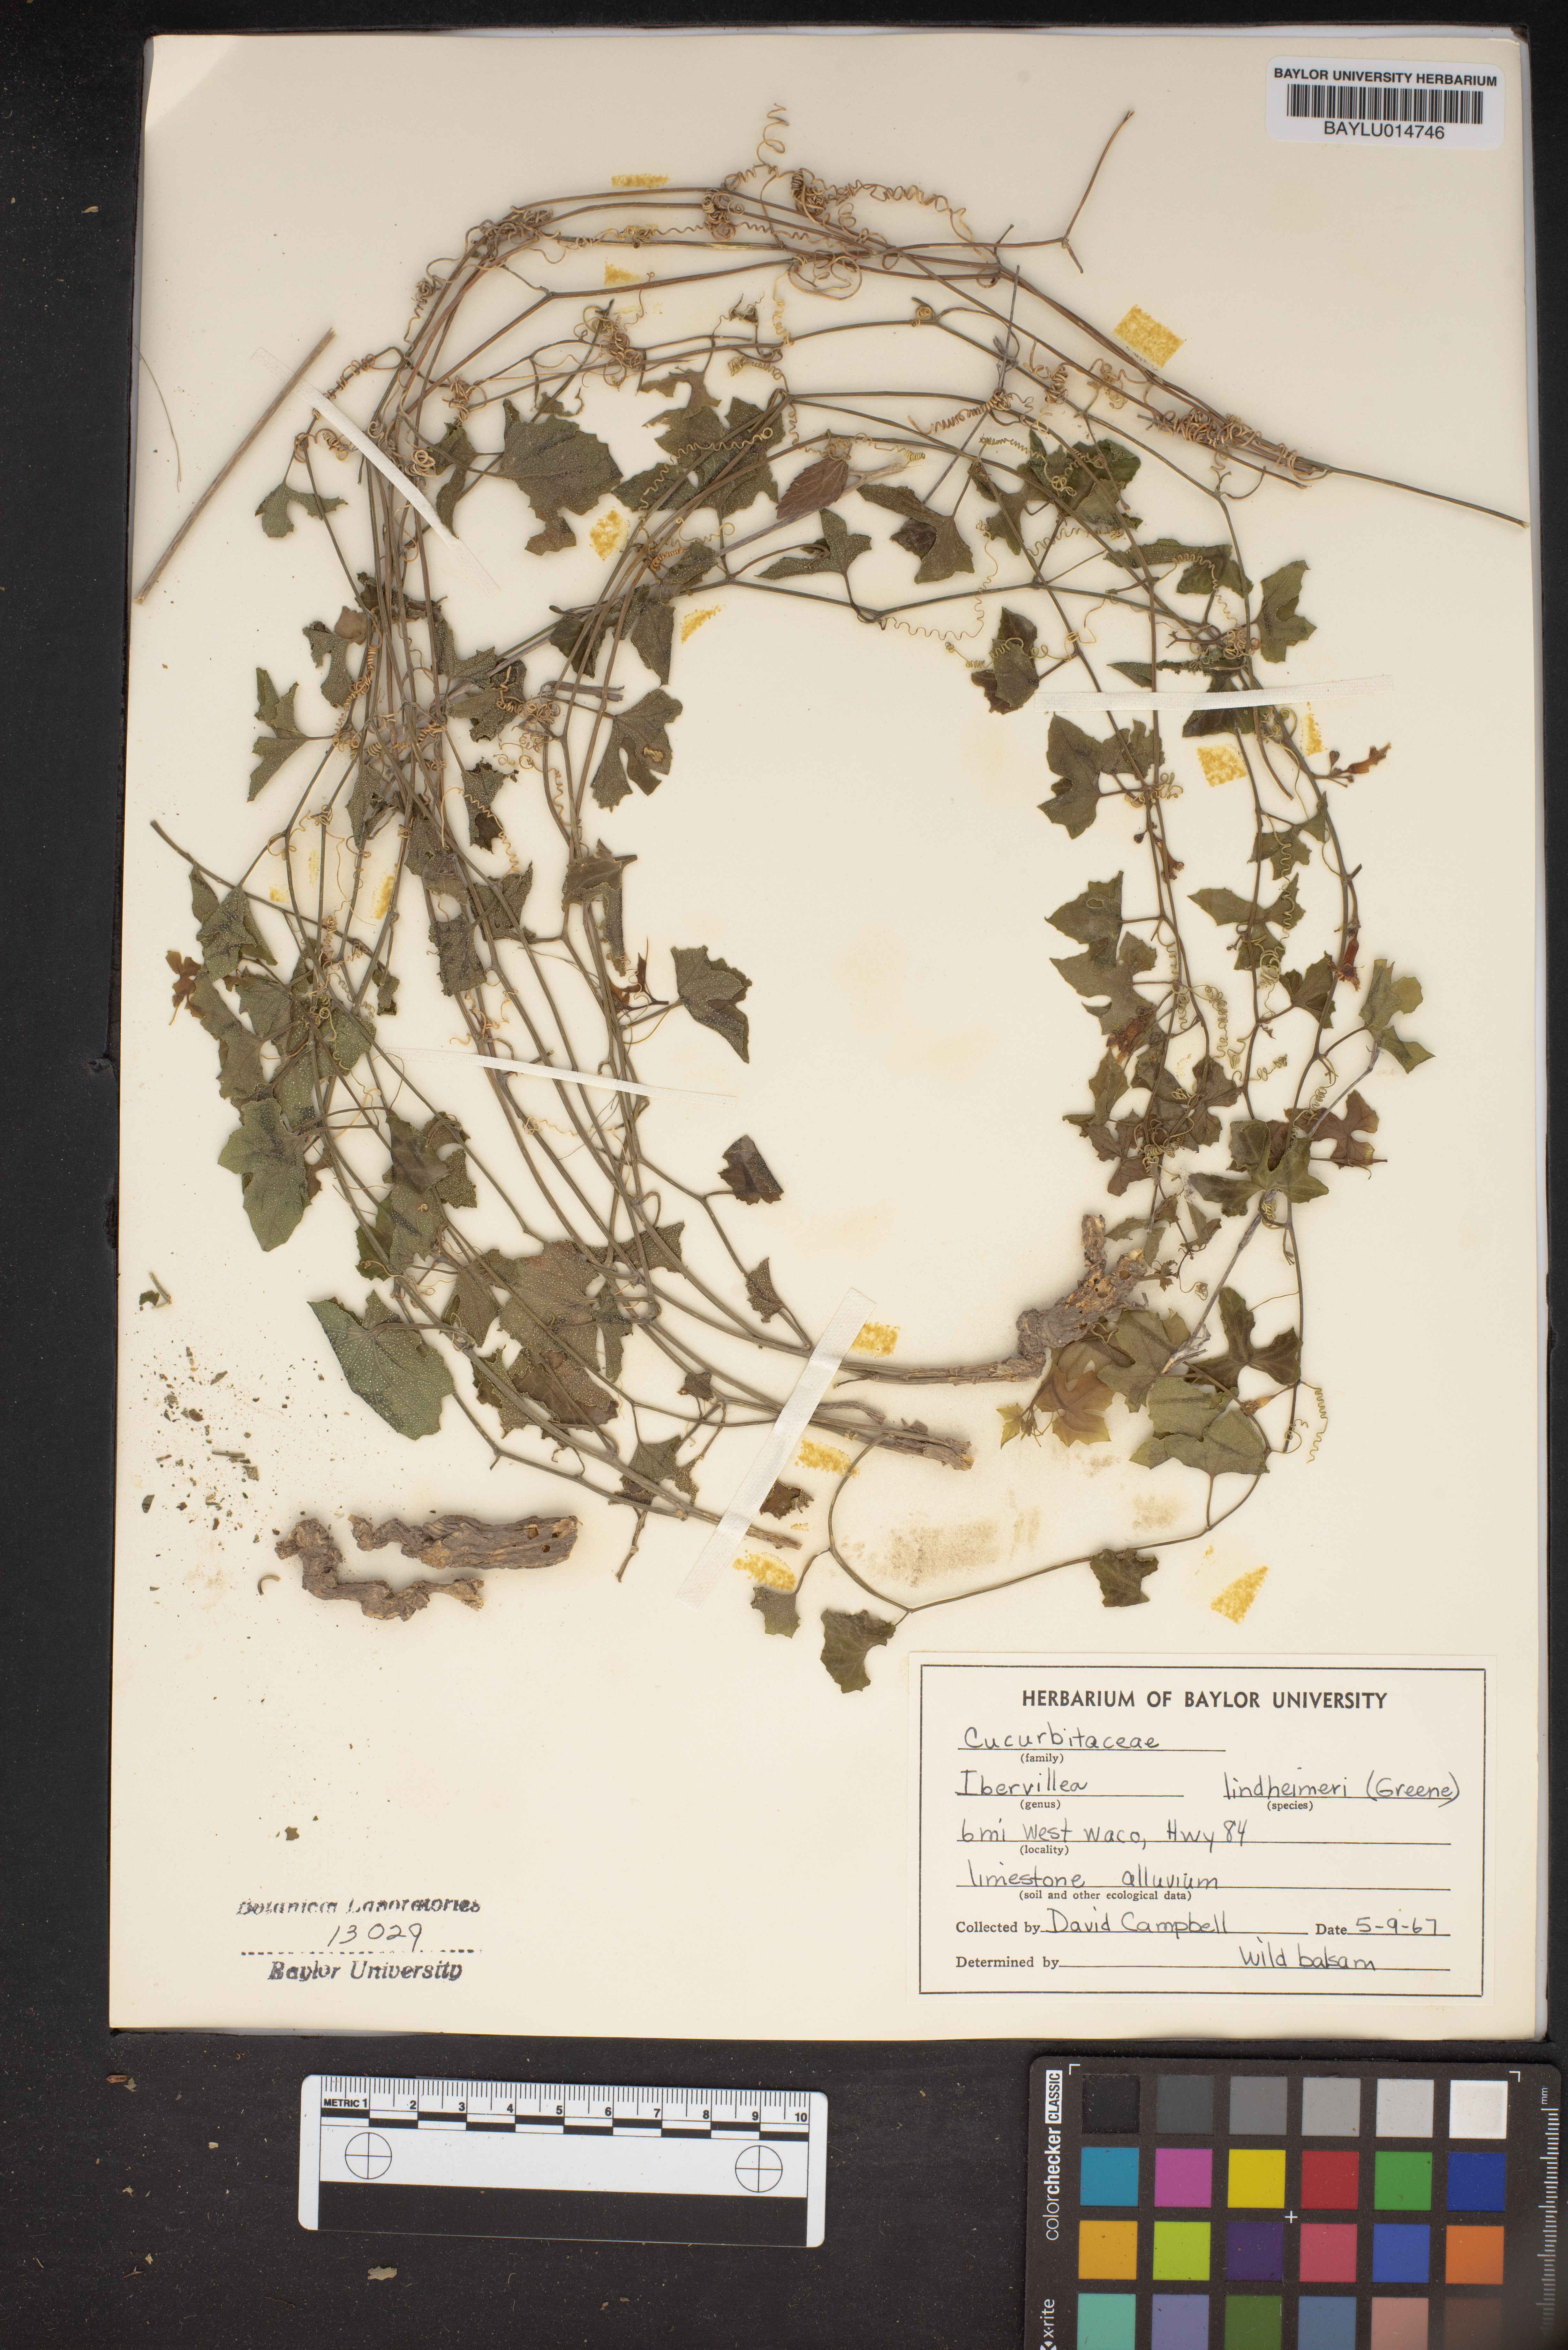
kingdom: Plantae
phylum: Tracheophyta
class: Magnoliopsida
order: Cucurbitales
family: Cucurbitaceae
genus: Ibervillea
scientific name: Ibervillea lindheimeri
